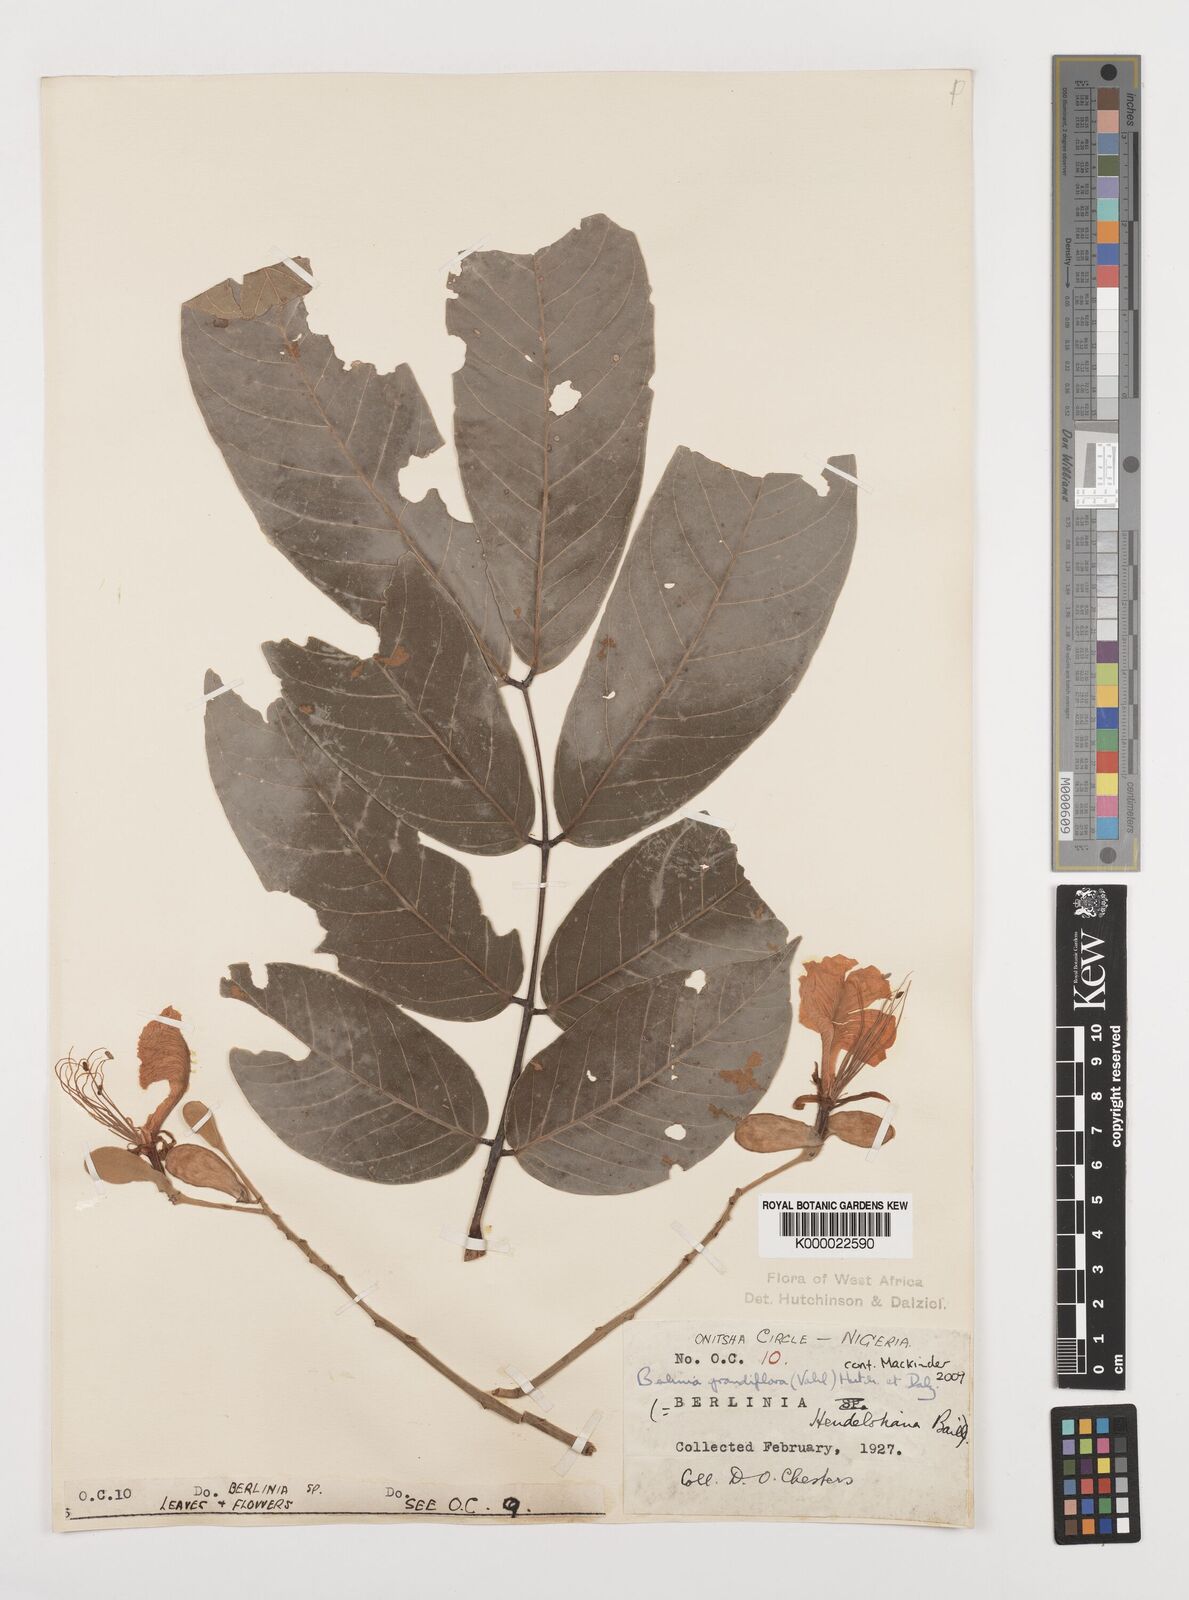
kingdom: Plantae
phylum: Tracheophyta
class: Magnoliopsida
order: Fabales
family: Fabaceae
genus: Berlinia
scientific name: Berlinia grandiflora
